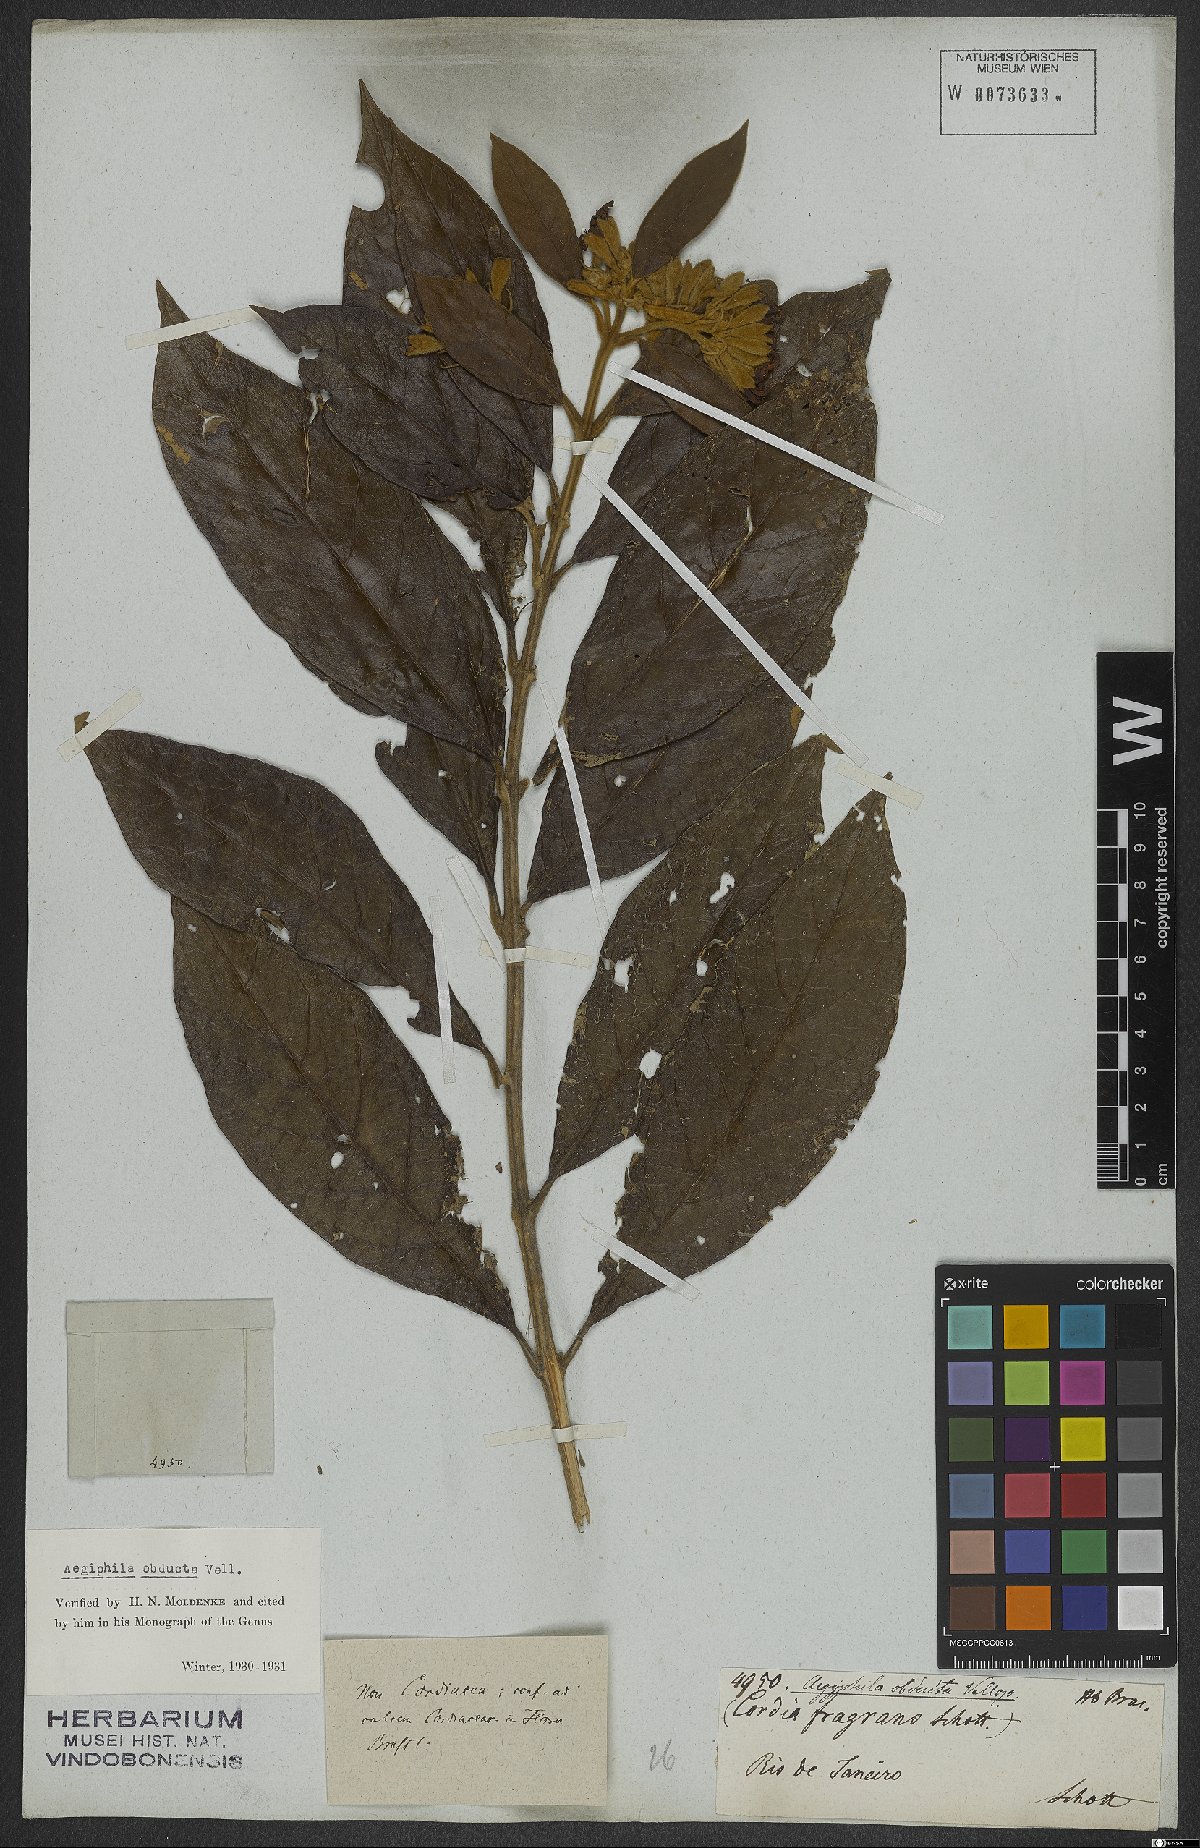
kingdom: Plantae
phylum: Tracheophyta
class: Magnoliopsida
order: Lamiales
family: Lamiaceae
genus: Aegiphila
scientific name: Aegiphila obducta
